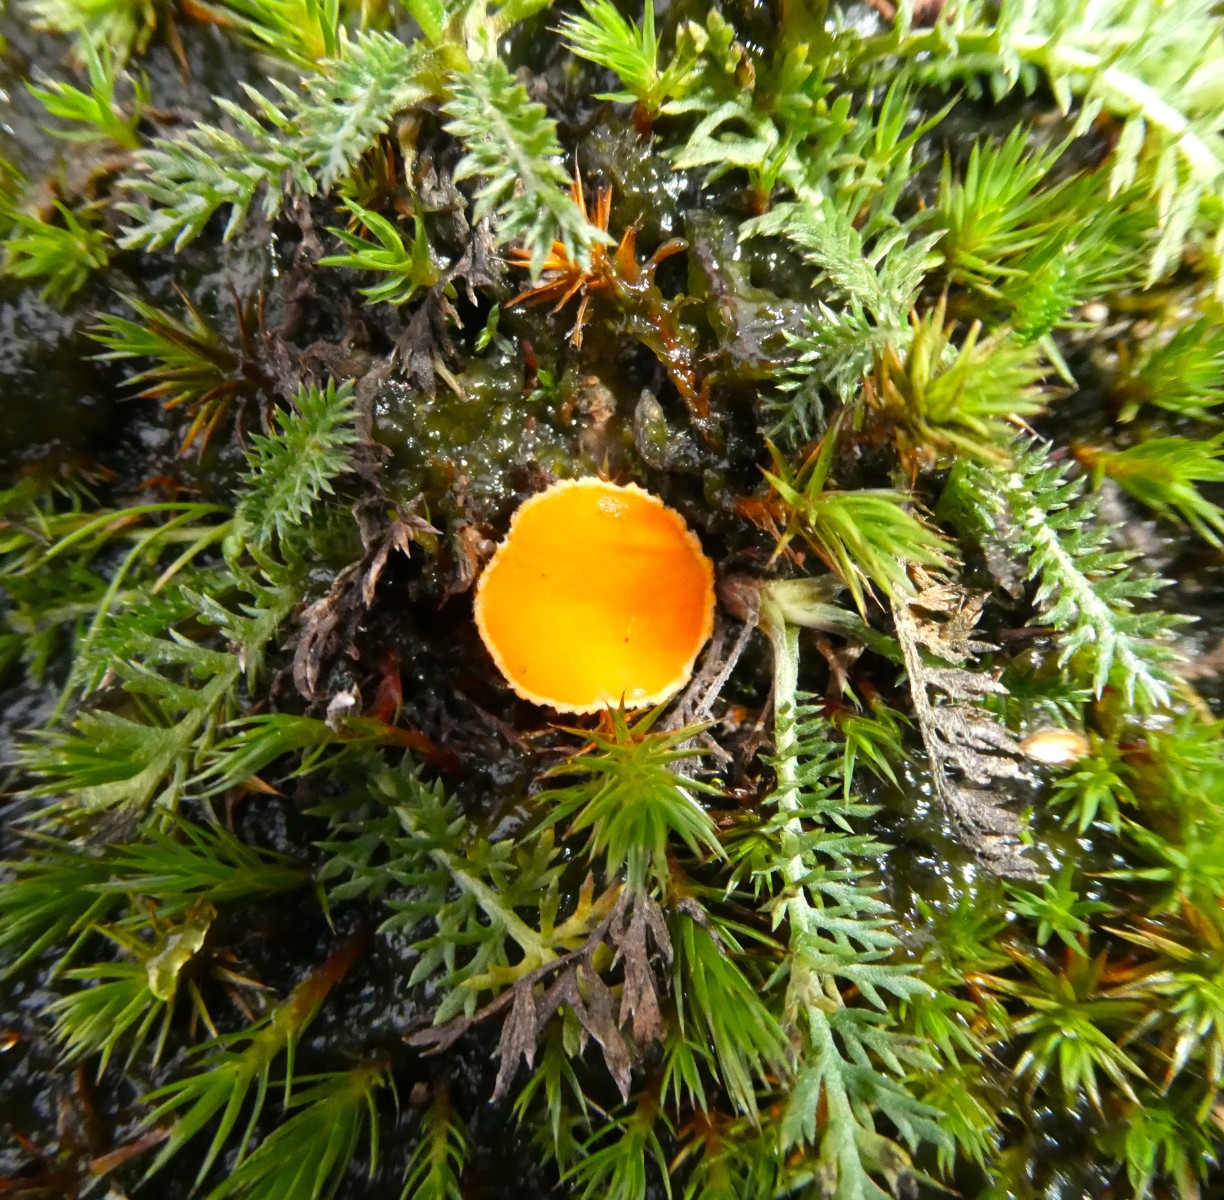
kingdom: Fungi
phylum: Ascomycota
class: Pezizomycetes
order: Pezizales
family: Pyronemataceae
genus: Neottiella
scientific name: Neottiella rutilans
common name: jomfruhår-mosbæger
